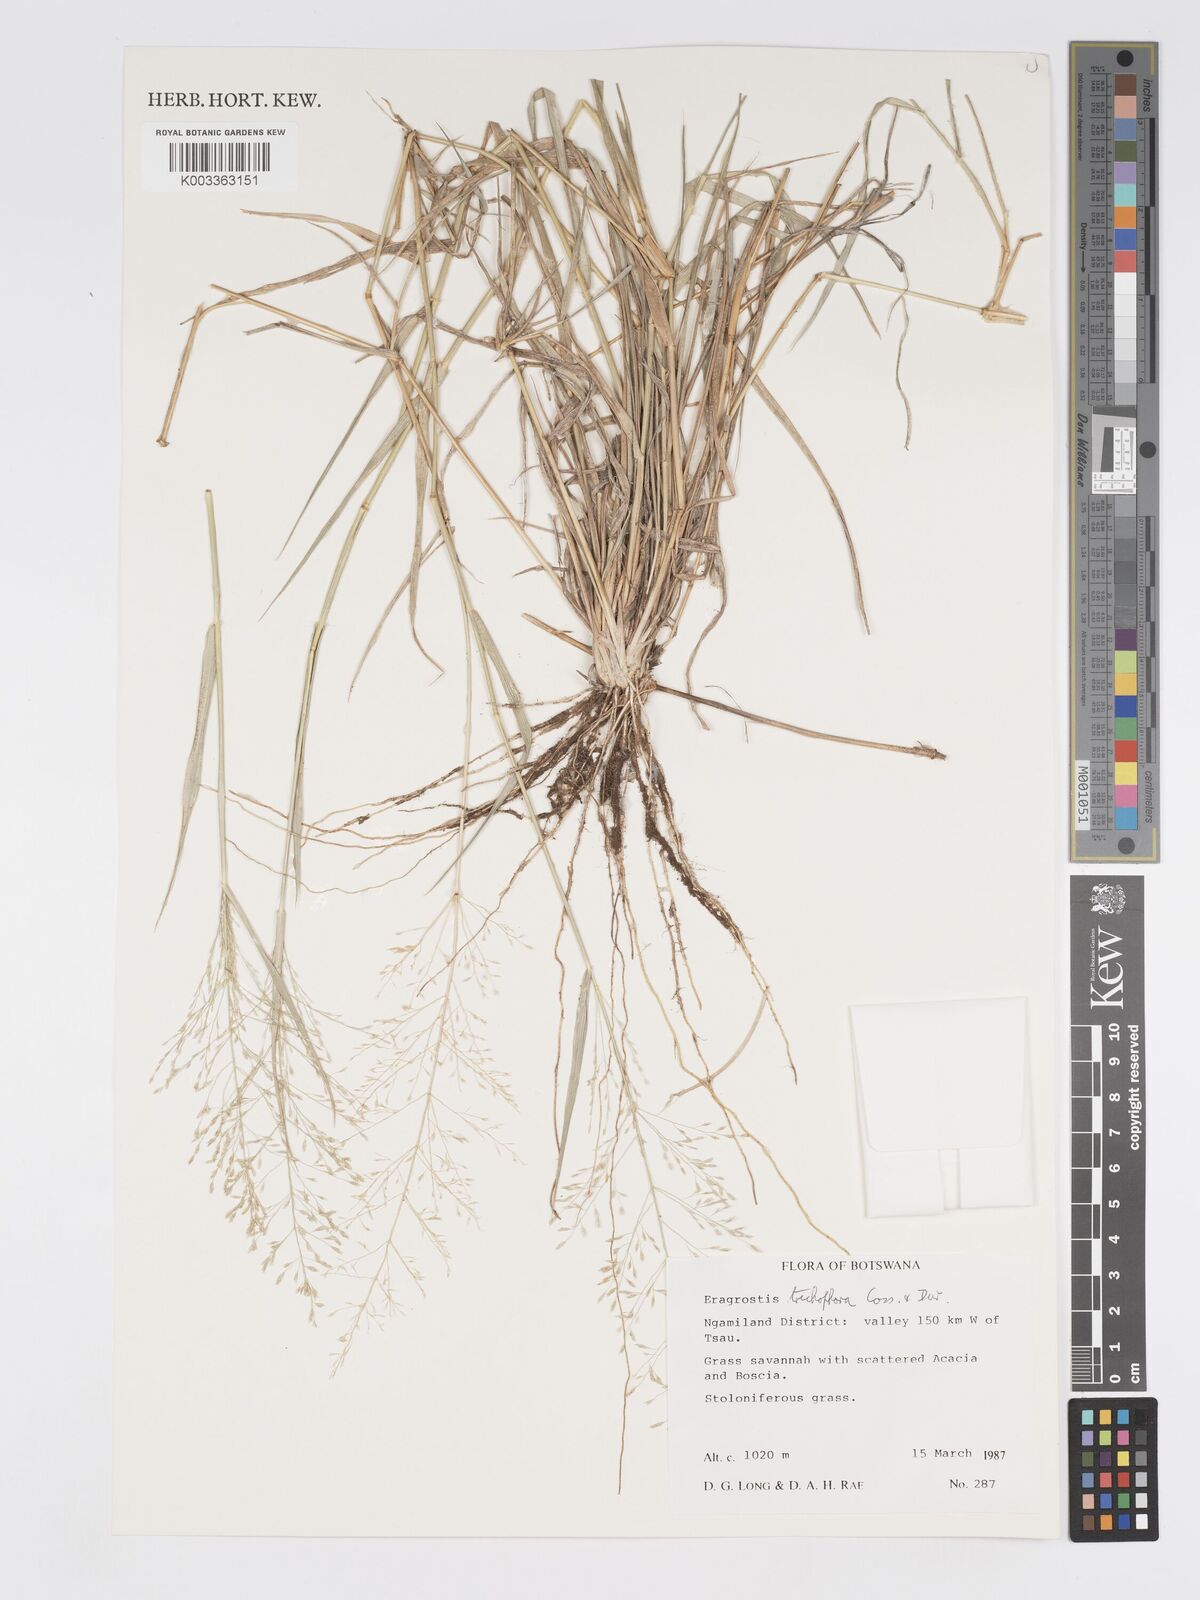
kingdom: Plantae
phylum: Tracheophyta
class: Liliopsida
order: Poales
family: Poaceae
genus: Eragrostis
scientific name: Eragrostis cylindriflora
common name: Cylinderflower lovegrass
